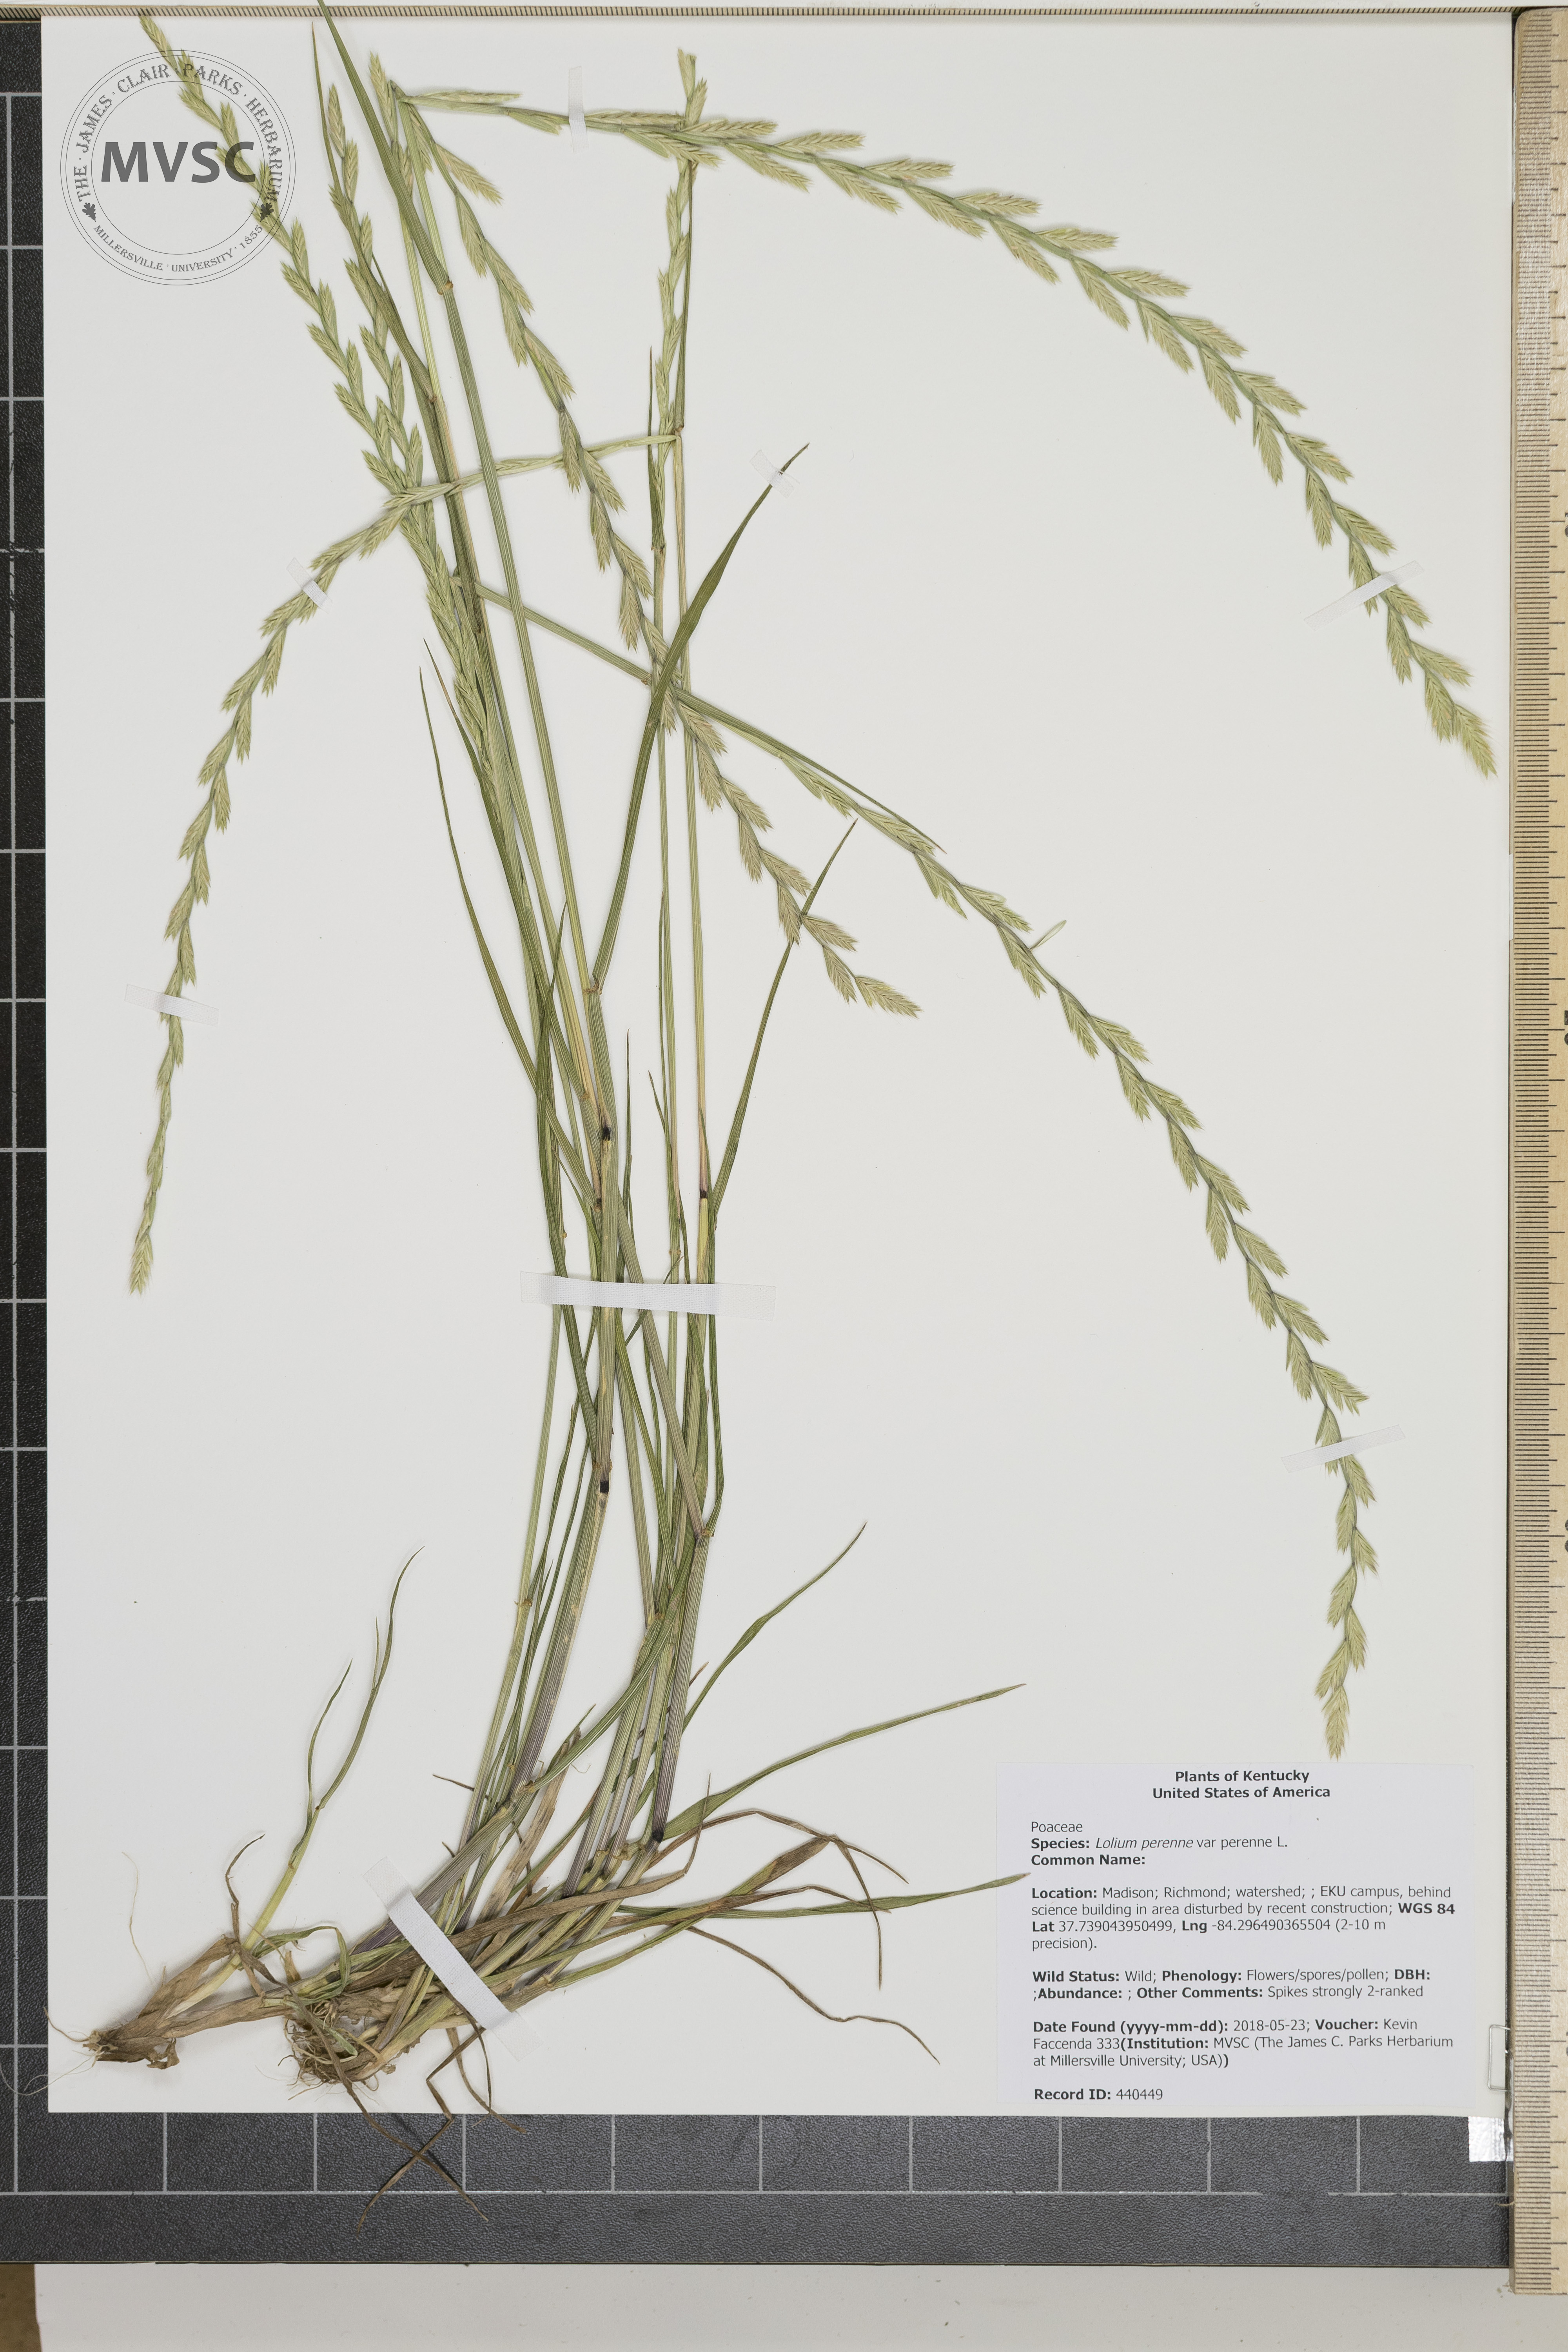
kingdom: Plantae
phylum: Tracheophyta
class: Liliopsida
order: Poales
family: Poaceae
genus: Lolium
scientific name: Lolium perenne
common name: Perennial ryegrass
